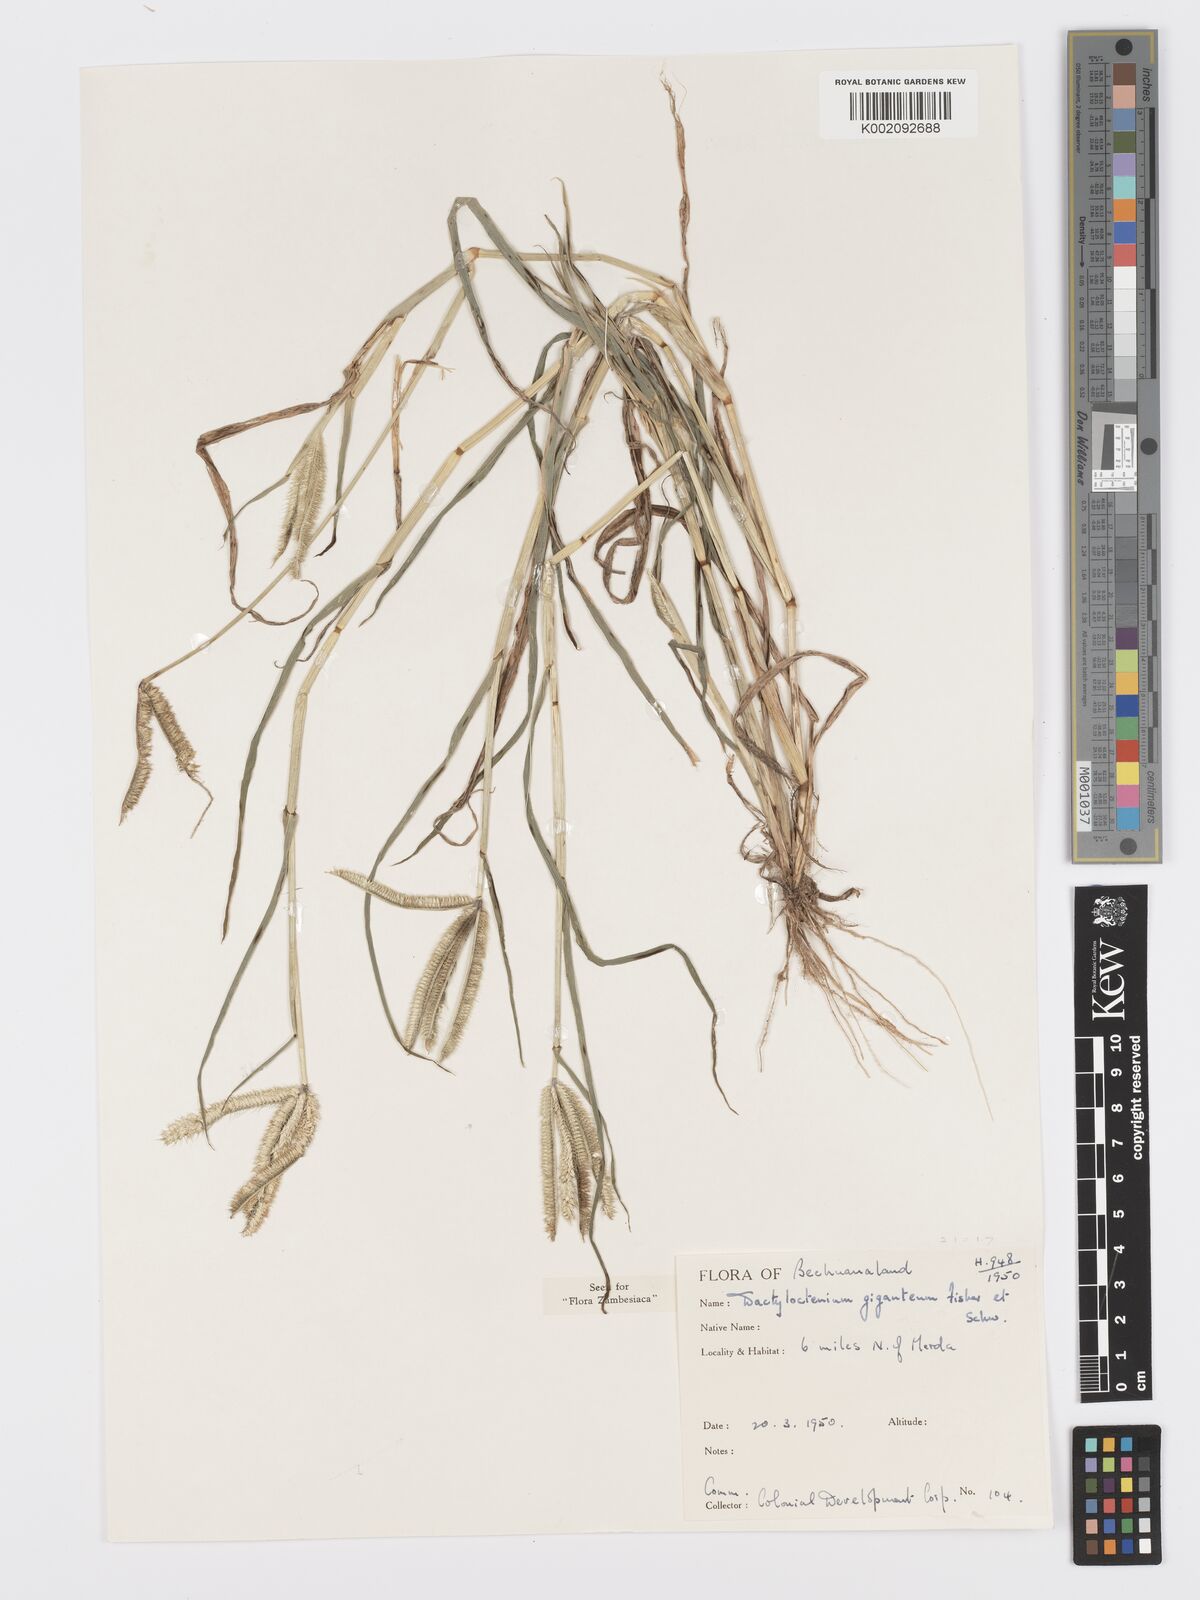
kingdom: Plantae
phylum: Tracheophyta
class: Liliopsida
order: Poales
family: Poaceae
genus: Dactyloctenium
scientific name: Dactyloctenium giganteum
